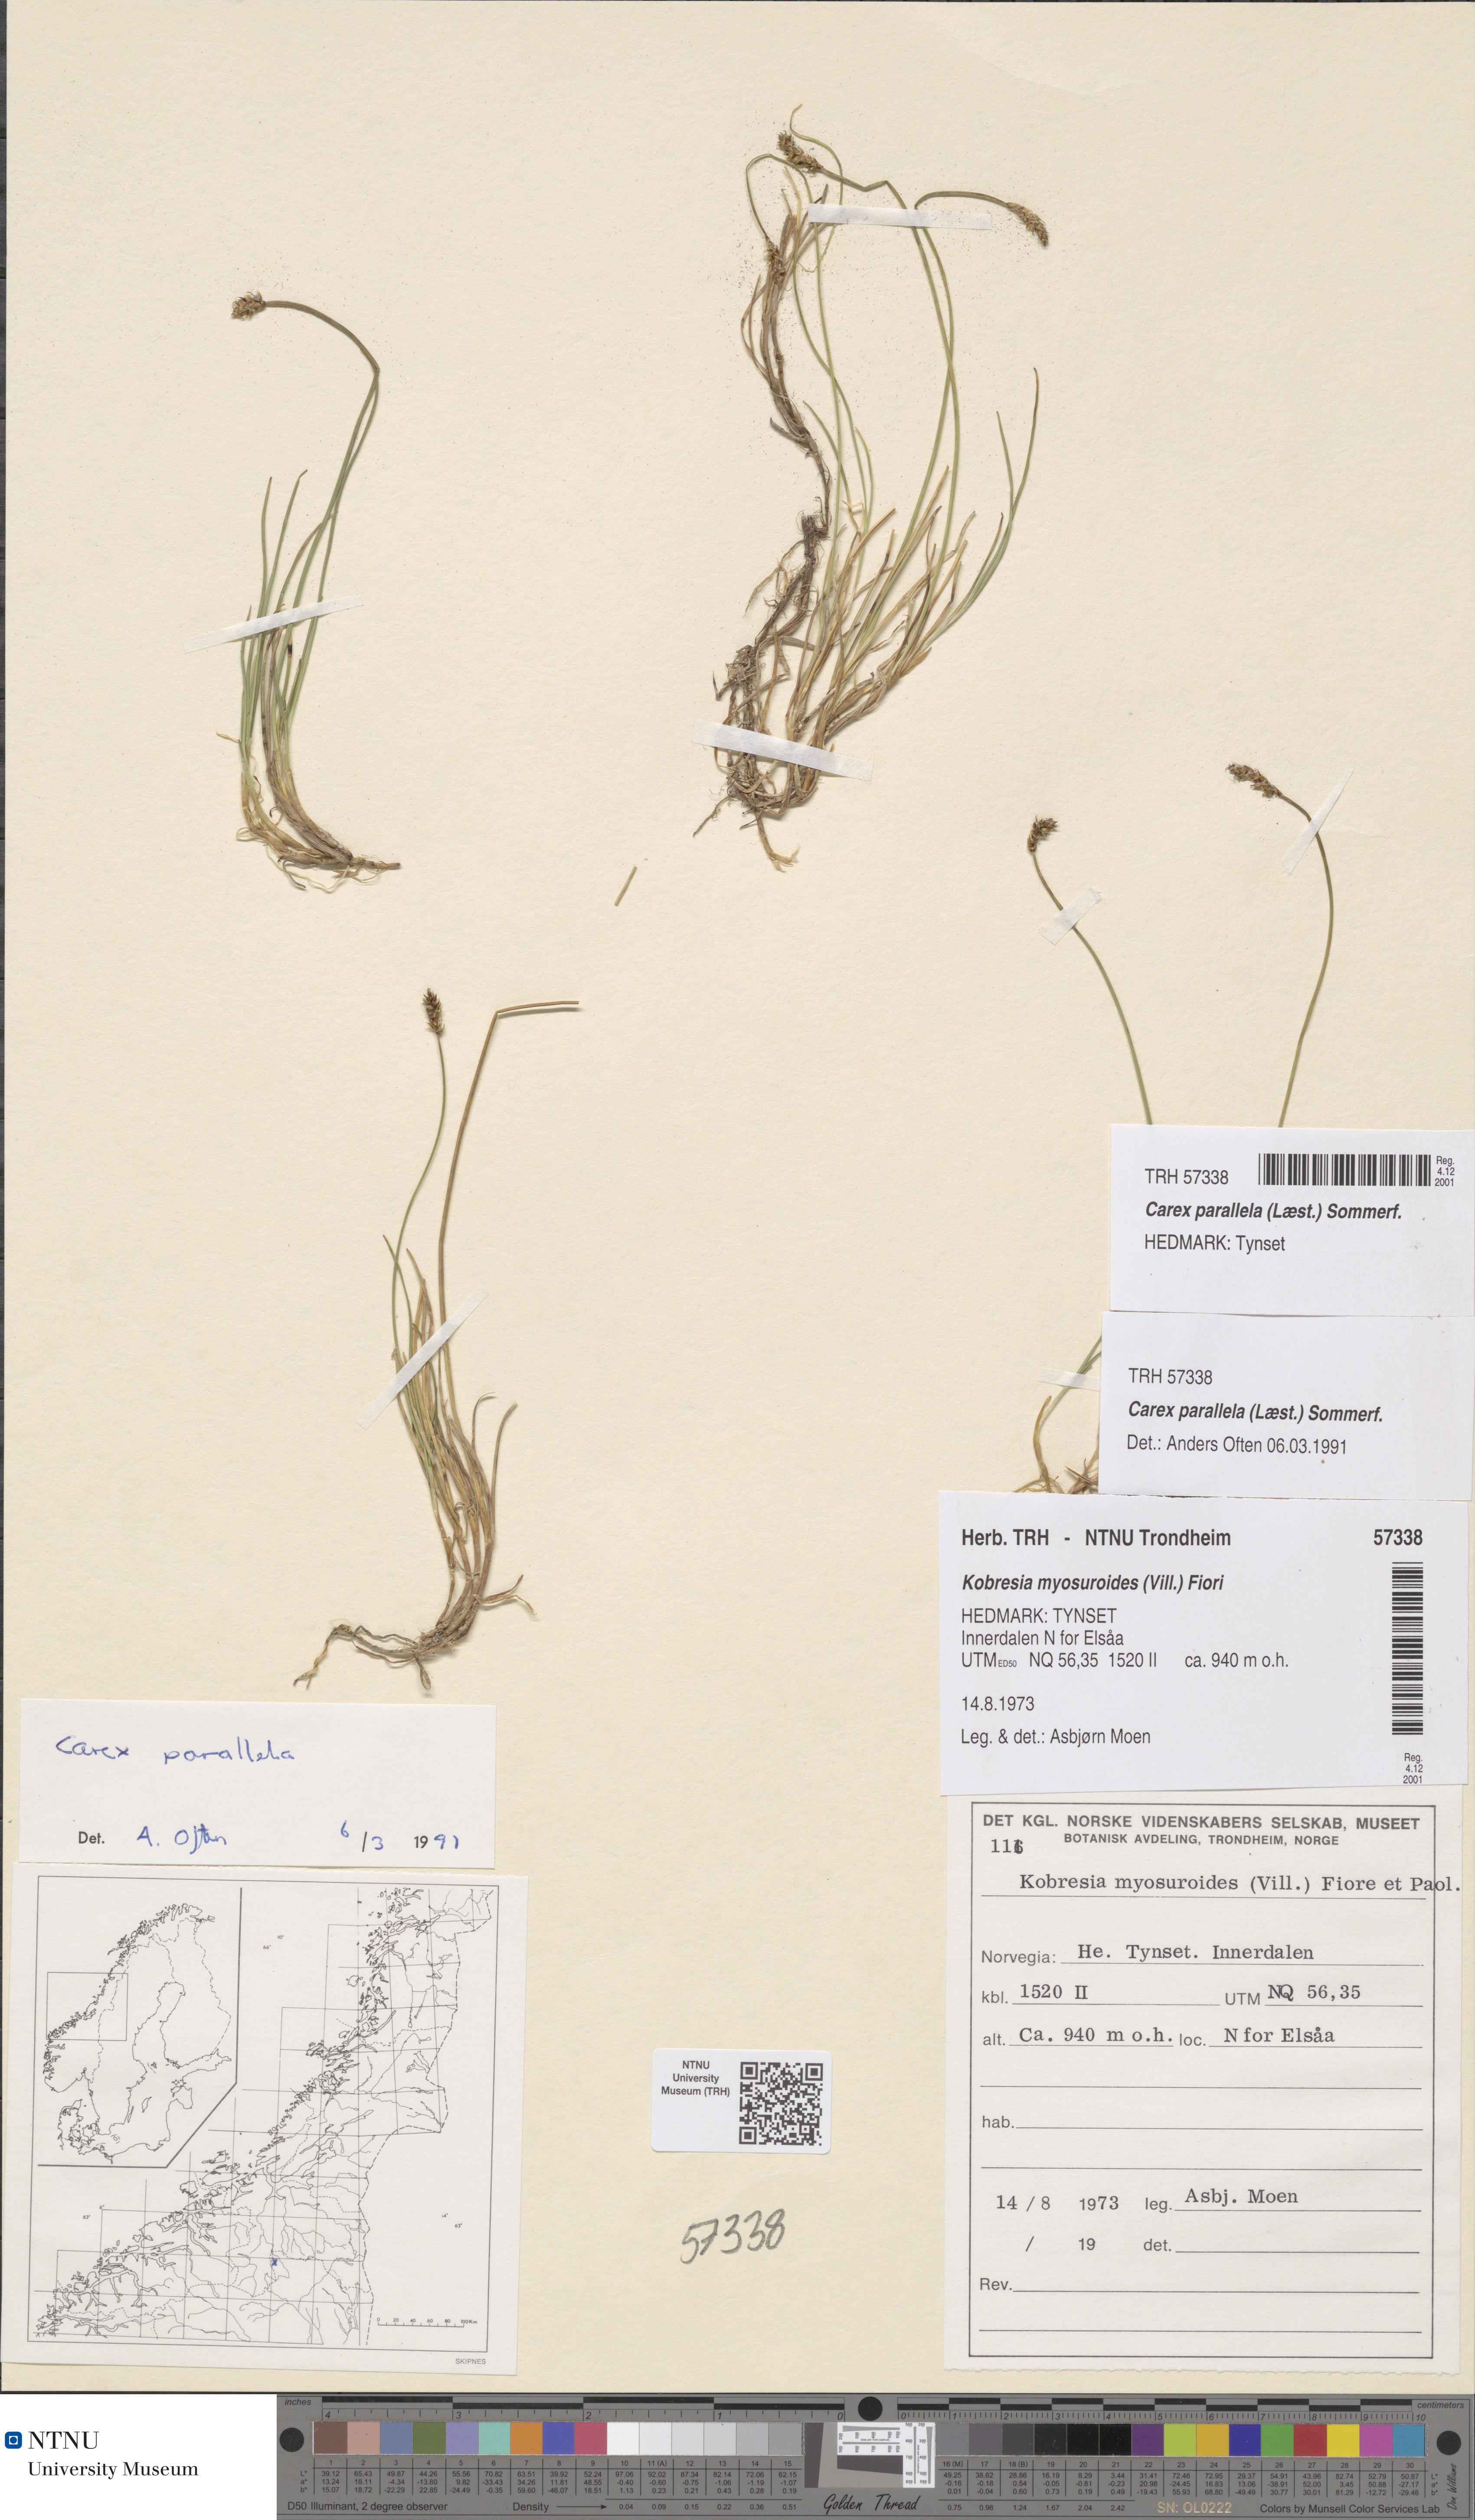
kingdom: Plantae
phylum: Tracheophyta
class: Liliopsida
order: Poales
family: Cyperaceae
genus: Carex
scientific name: Carex parallela
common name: Parallel sedge
